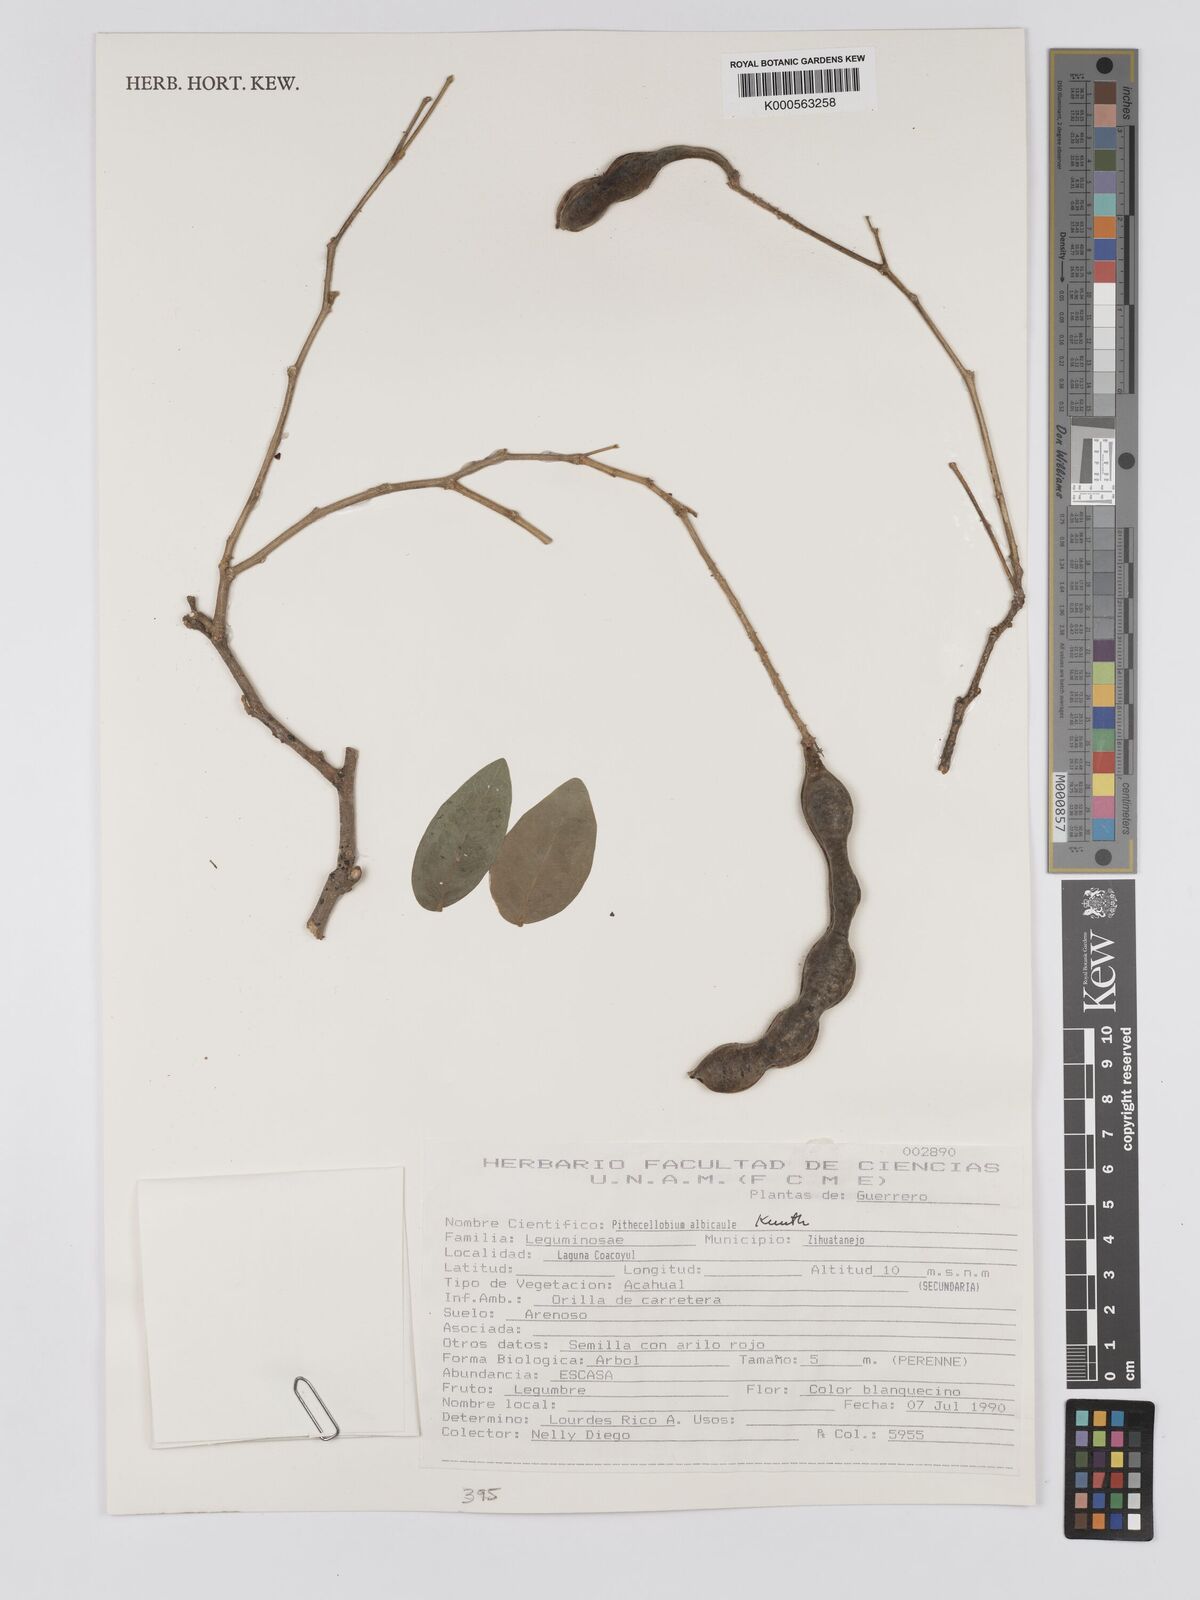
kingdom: Plantae
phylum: Tracheophyta
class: Magnoliopsida
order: Fabales
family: Fabaceae
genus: Pithecellobium
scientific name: Pithecellobium lanceolatum
